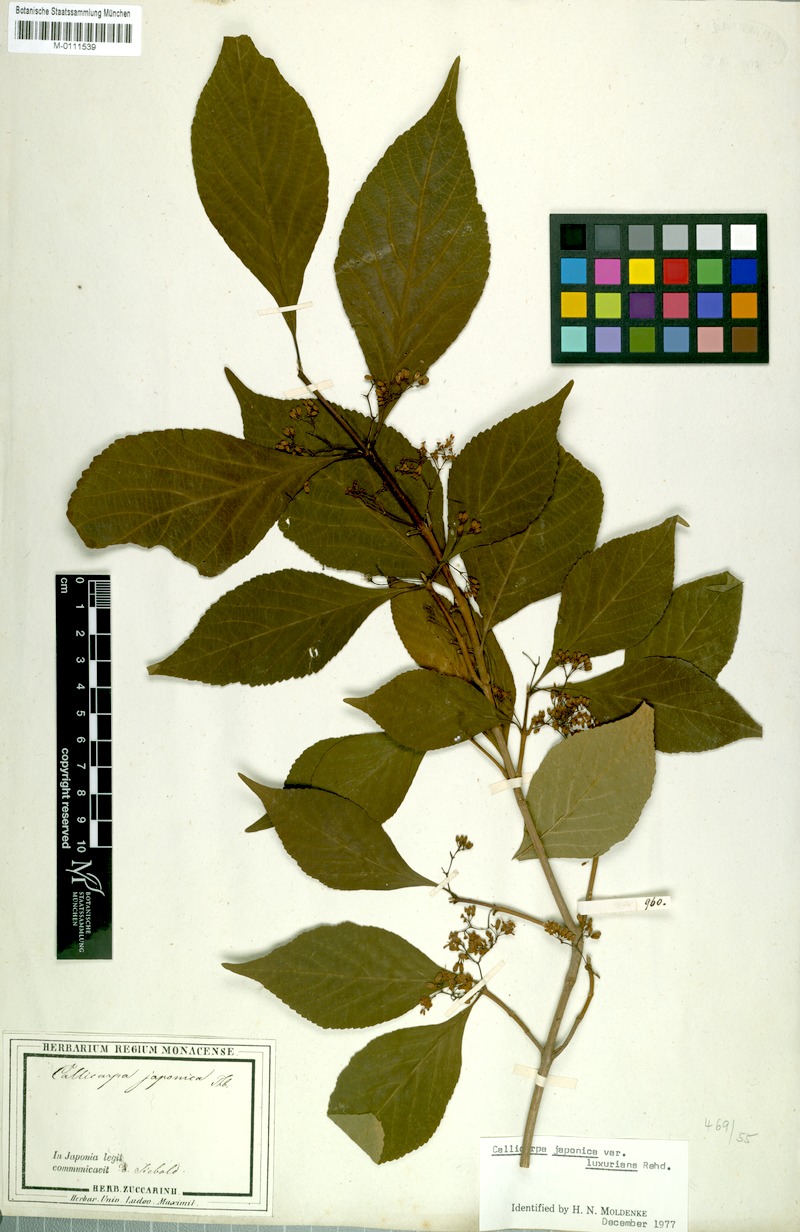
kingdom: Plantae
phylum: Tracheophyta
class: Magnoliopsida
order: Lamiales
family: Lamiaceae
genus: Callicarpa
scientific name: Callicarpa japonica
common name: Japanese beauty-berry
